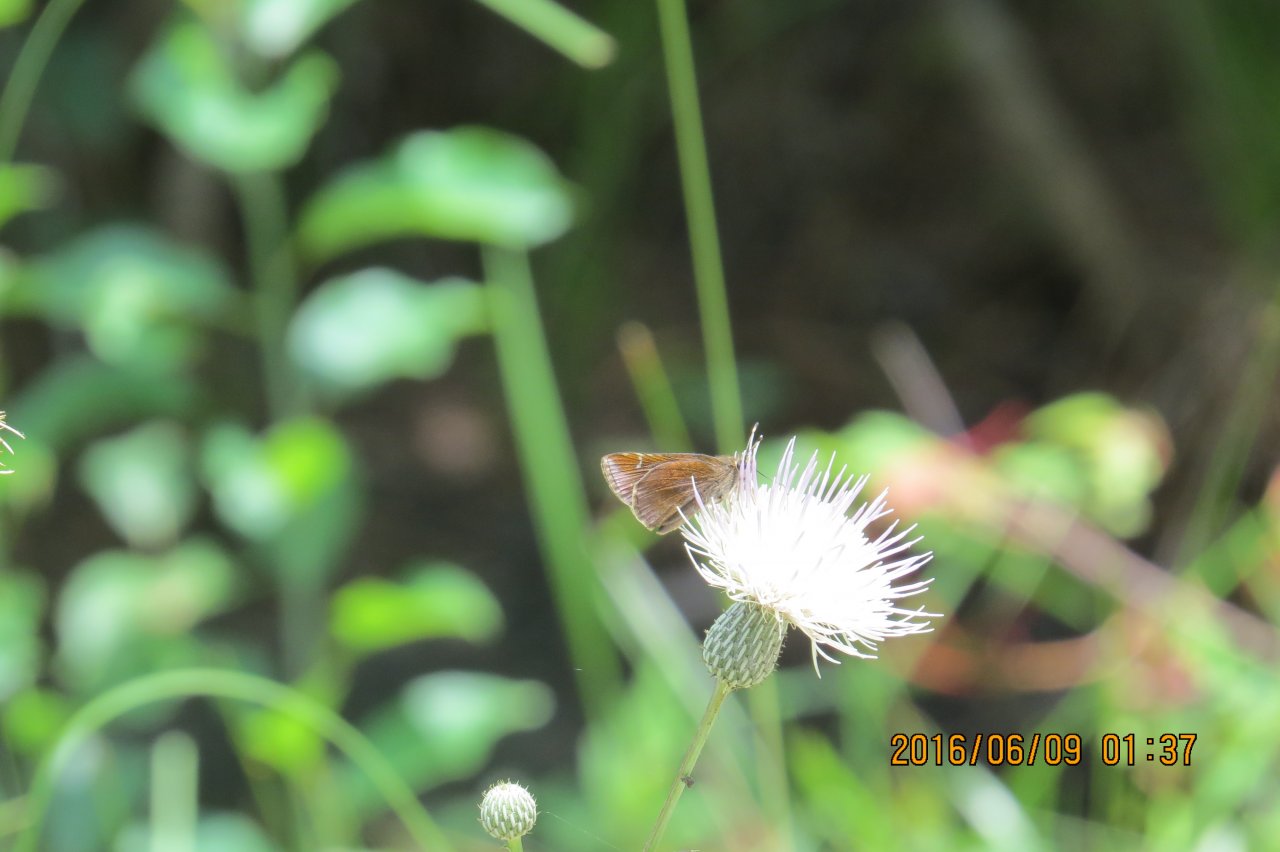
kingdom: Animalia
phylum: Arthropoda
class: Insecta
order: Lepidoptera
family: Hesperiidae
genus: Lerema
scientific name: Lerema accius
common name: Clouded Skipper
